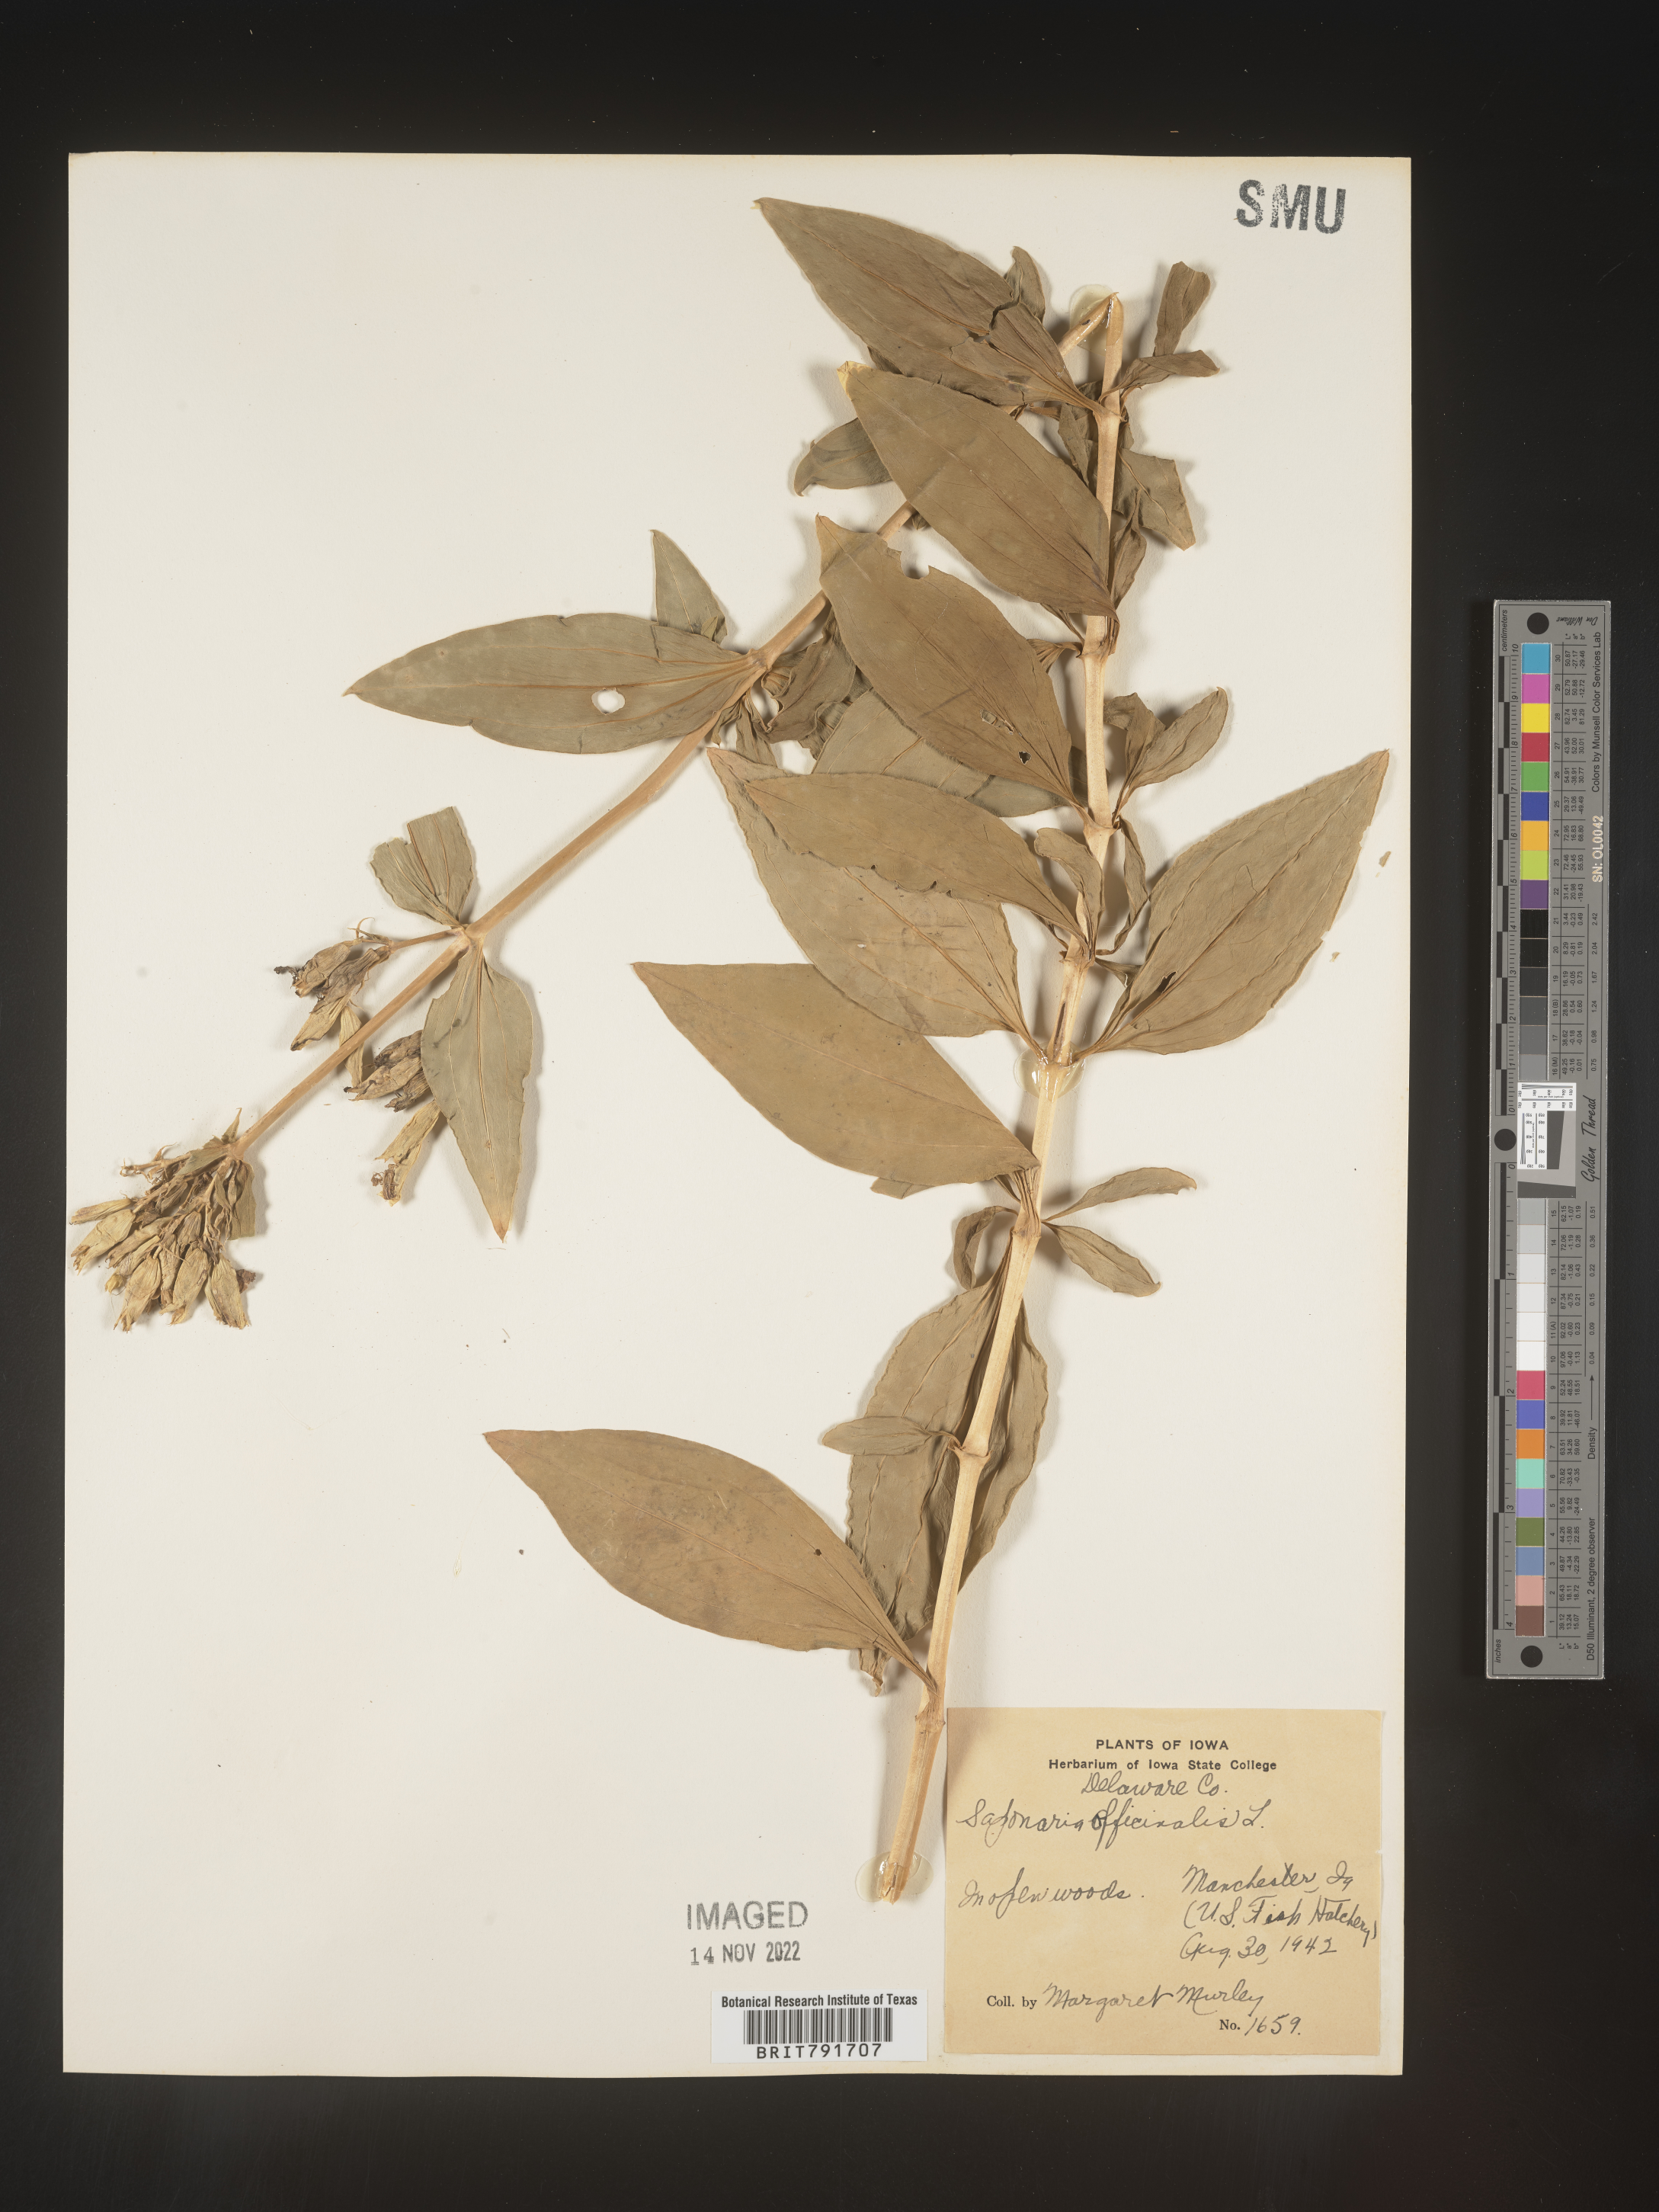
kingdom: Plantae
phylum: Tracheophyta
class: Magnoliopsida
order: Caryophyllales
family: Caryophyllaceae
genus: Saponaria
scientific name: Saponaria officinalis
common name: Soapwort
